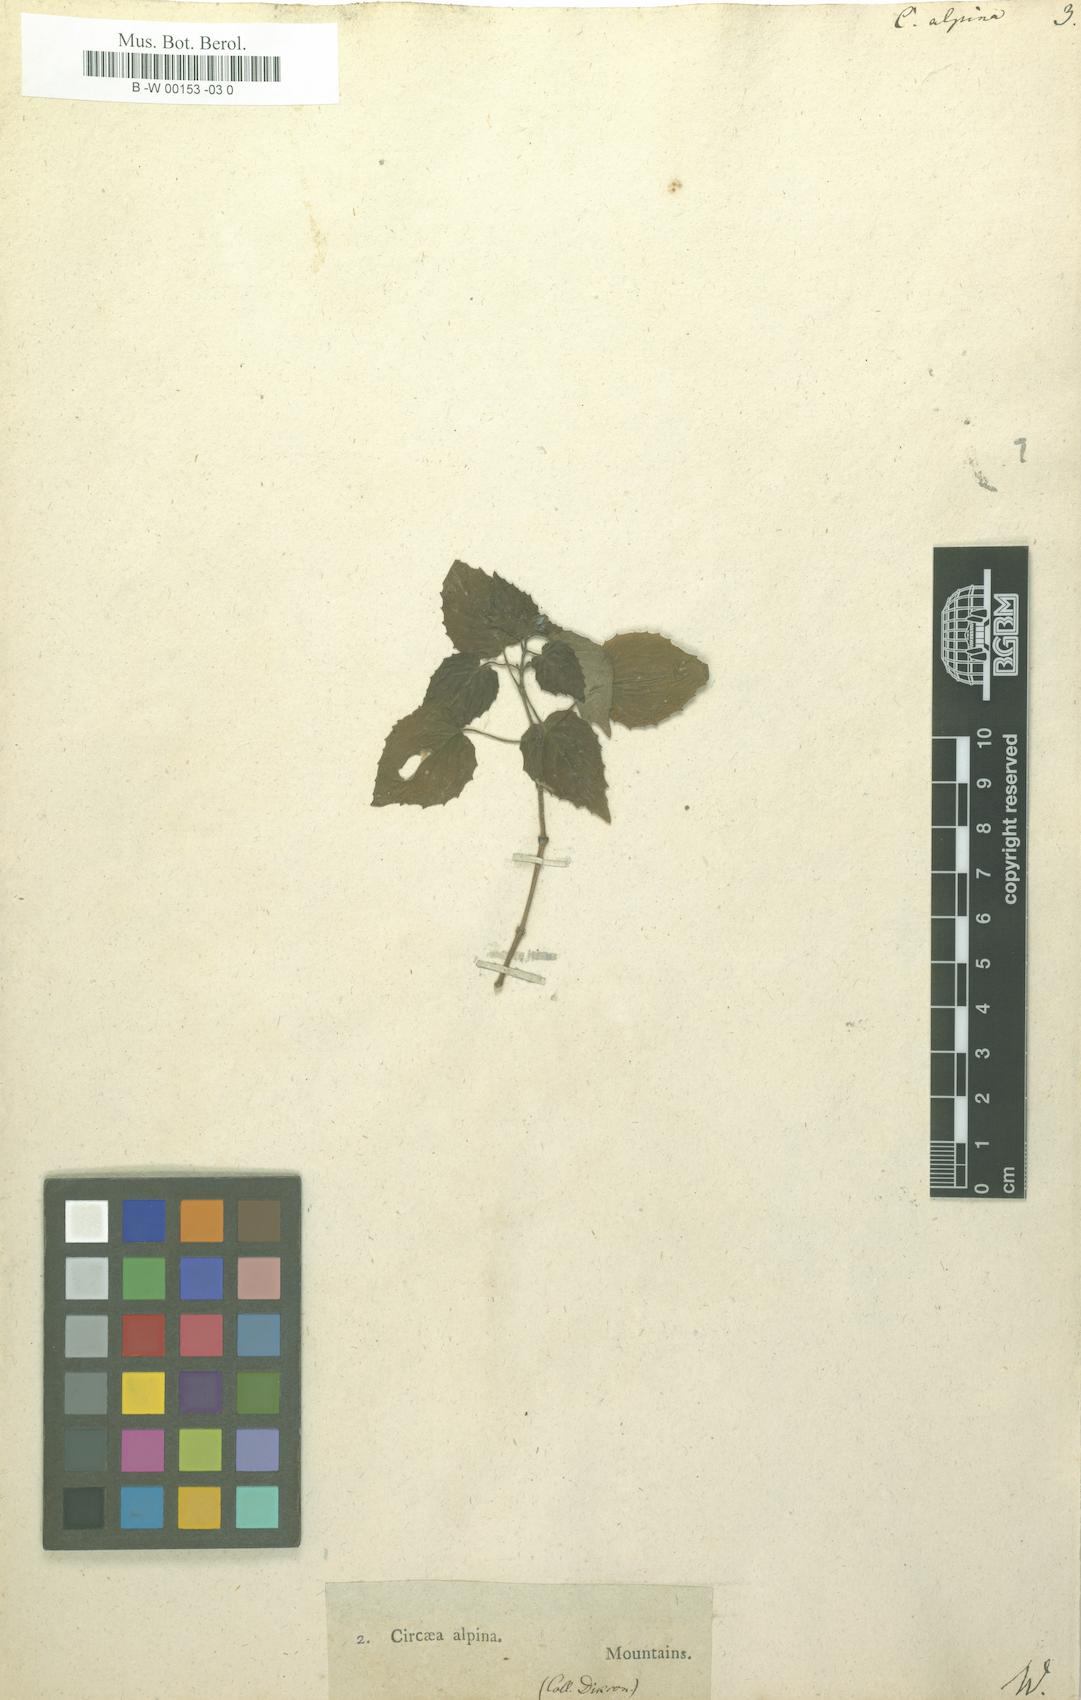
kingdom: Plantae
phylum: Tracheophyta
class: Magnoliopsida
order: Myrtales
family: Onagraceae
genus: Circaea
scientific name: Circaea alpina
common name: Alpine enchanter's-nightshade
